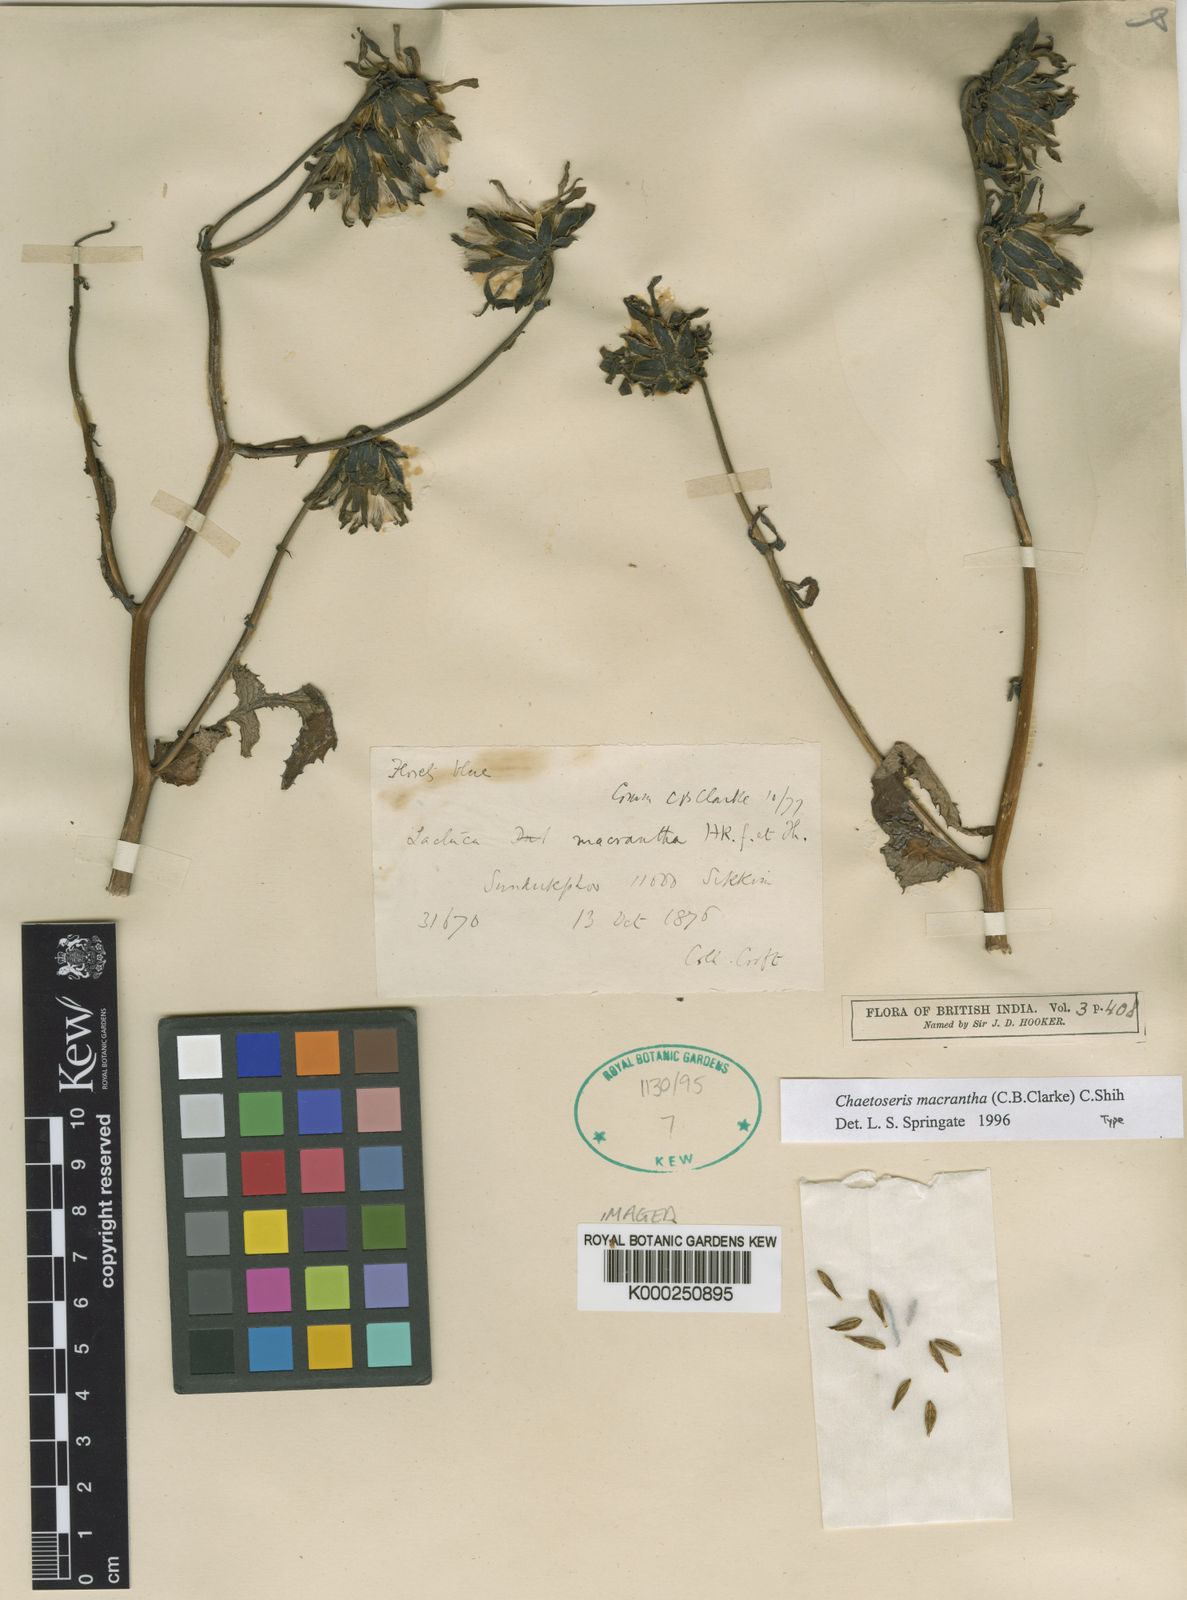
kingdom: Plantae
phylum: Tracheophyta
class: Magnoliopsida
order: Asterales
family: Asteraceae
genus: Melanoseris
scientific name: Melanoseris macrantha
